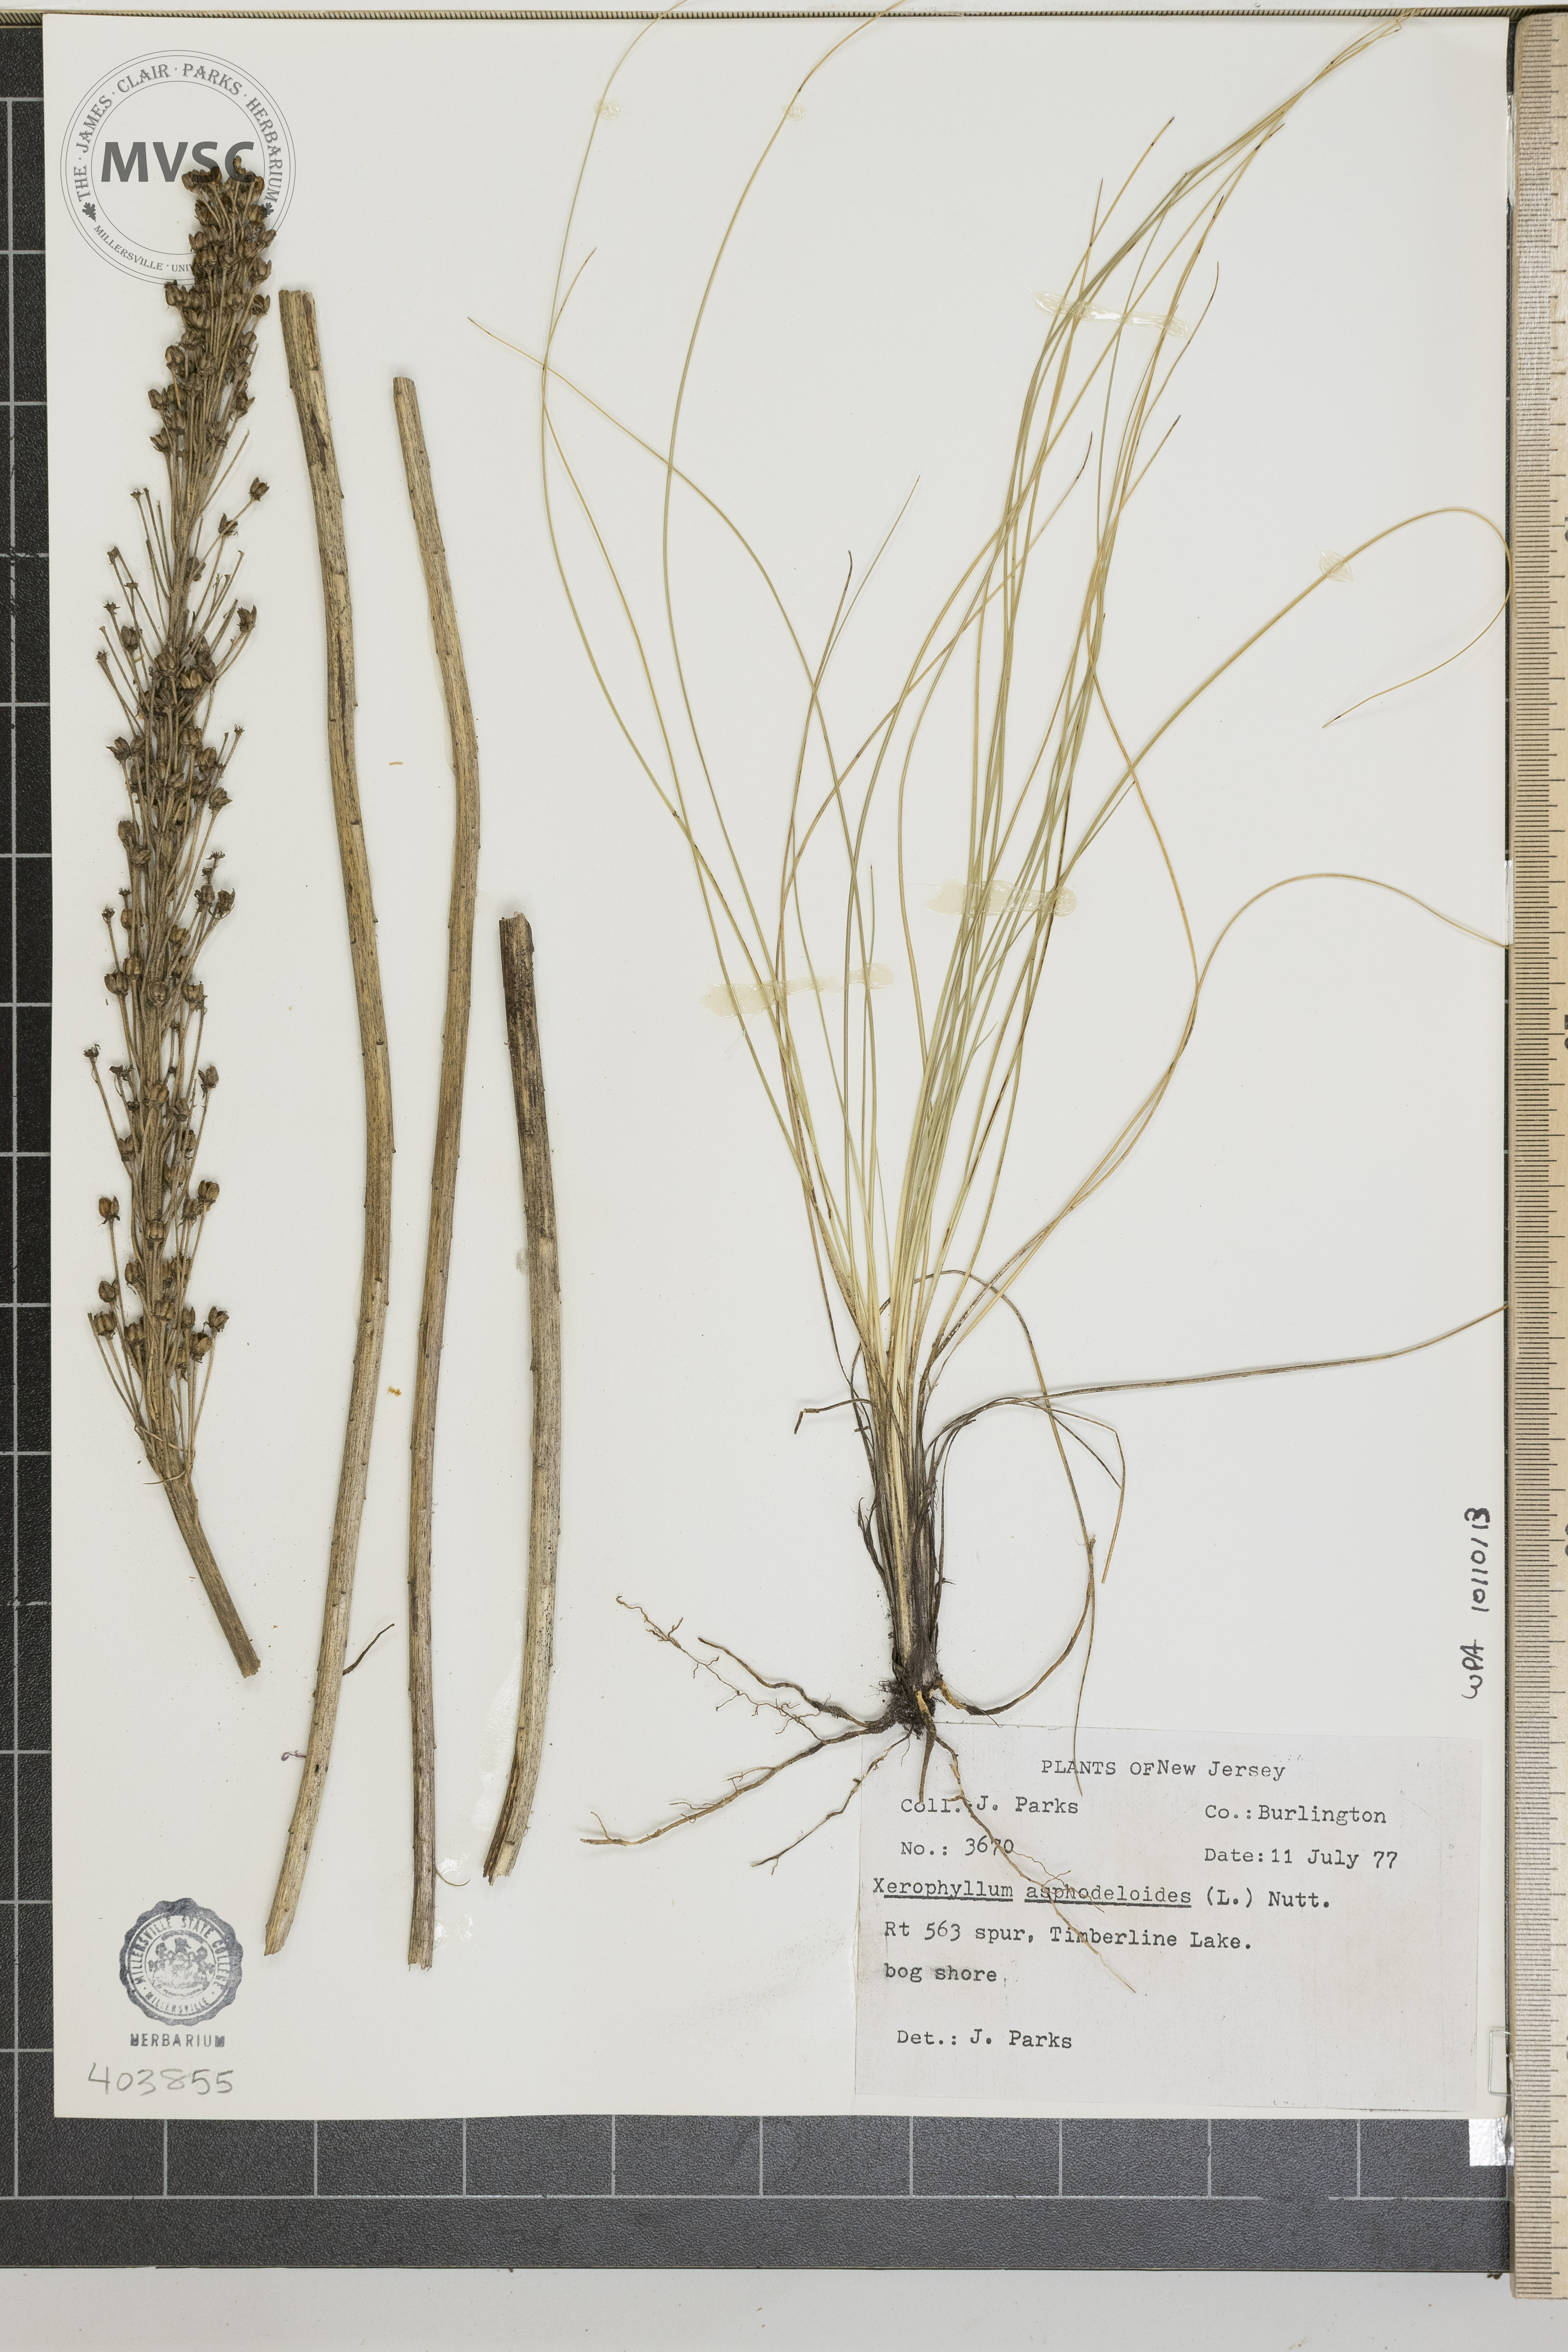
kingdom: Plantae
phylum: Tracheophyta
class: Liliopsida
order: Liliales
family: Melanthiaceae
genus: Xerophyllum
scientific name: Xerophyllum asphodeloides
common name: Mountain-asphodel
